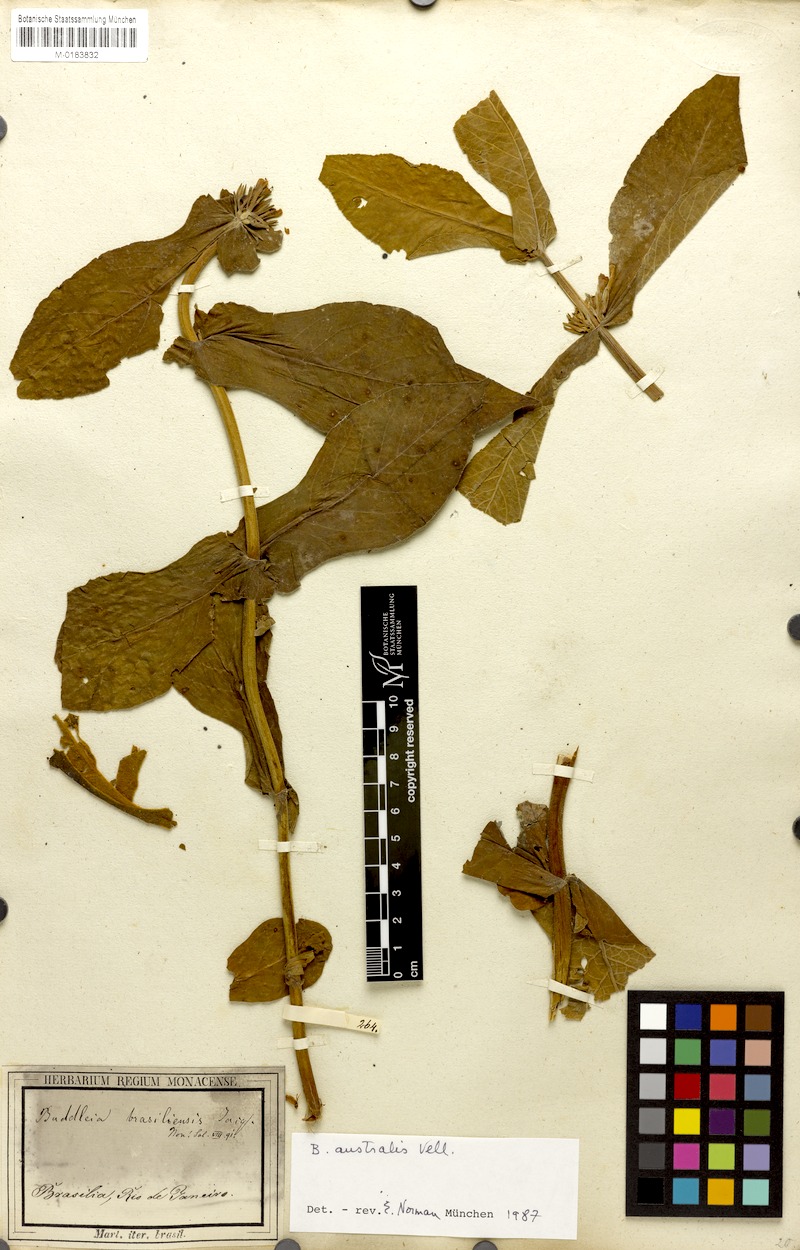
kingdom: Plantae
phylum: Tracheophyta
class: Magnoliopsida
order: Lamiales
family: Scrophulariaceae
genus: Buddleja
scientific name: Buddleja stachyoides
